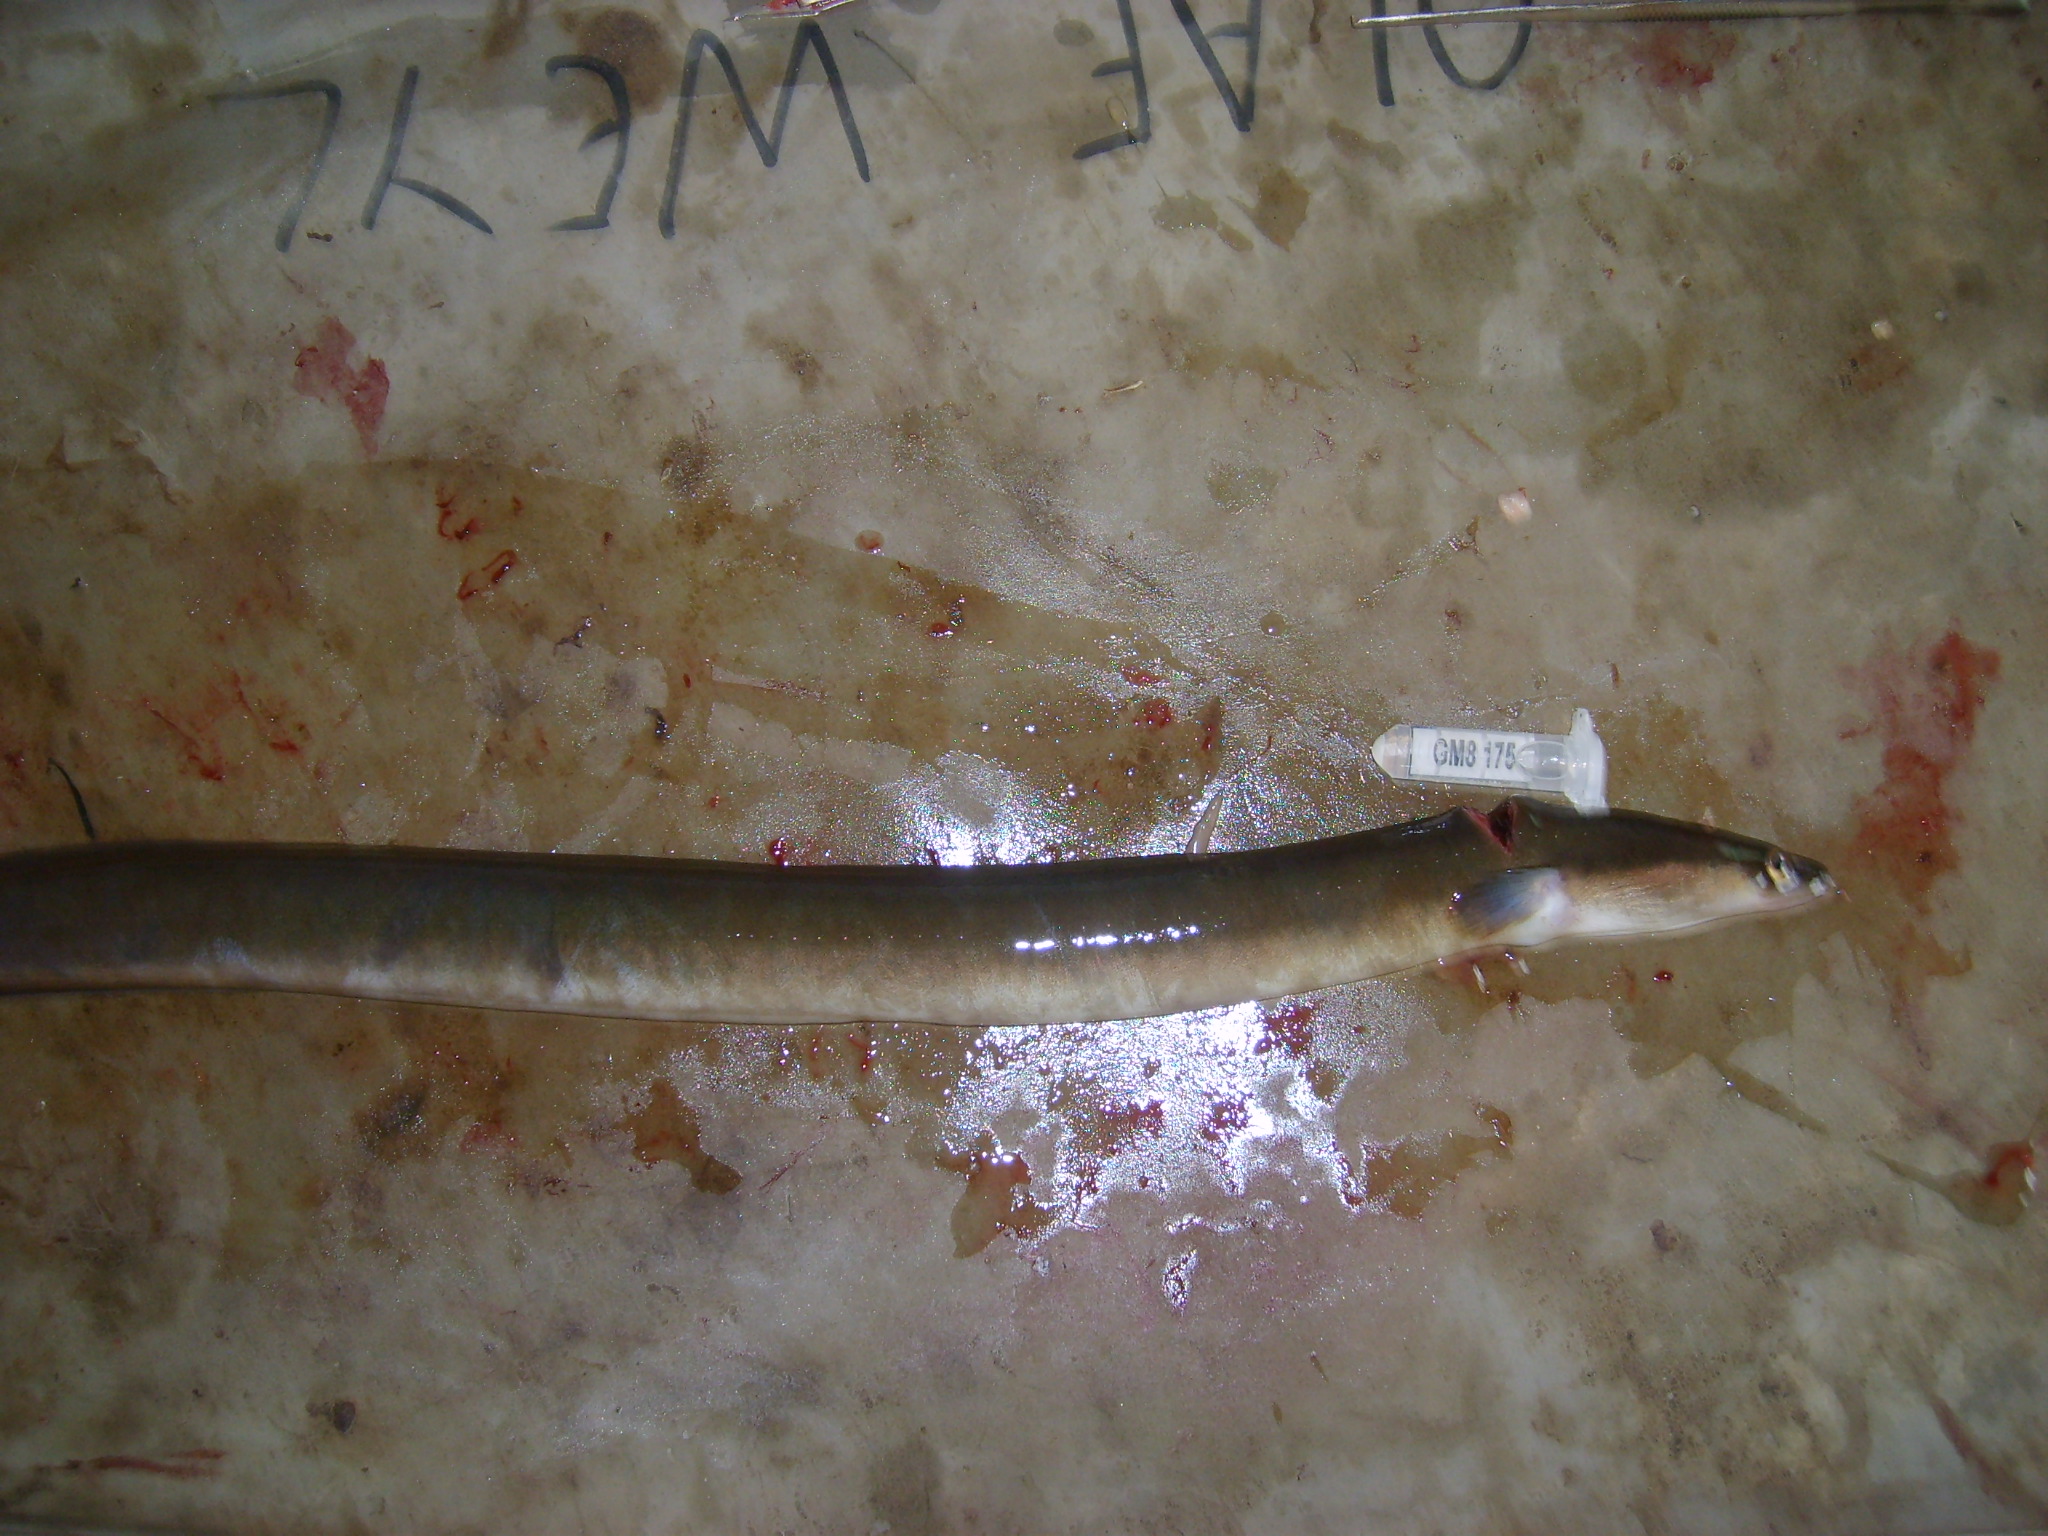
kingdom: Animalia
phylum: Chordata
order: Anguilliformes
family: Anguillidae
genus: Anguilla
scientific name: Anguilla mossambica
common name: African longfin eel
